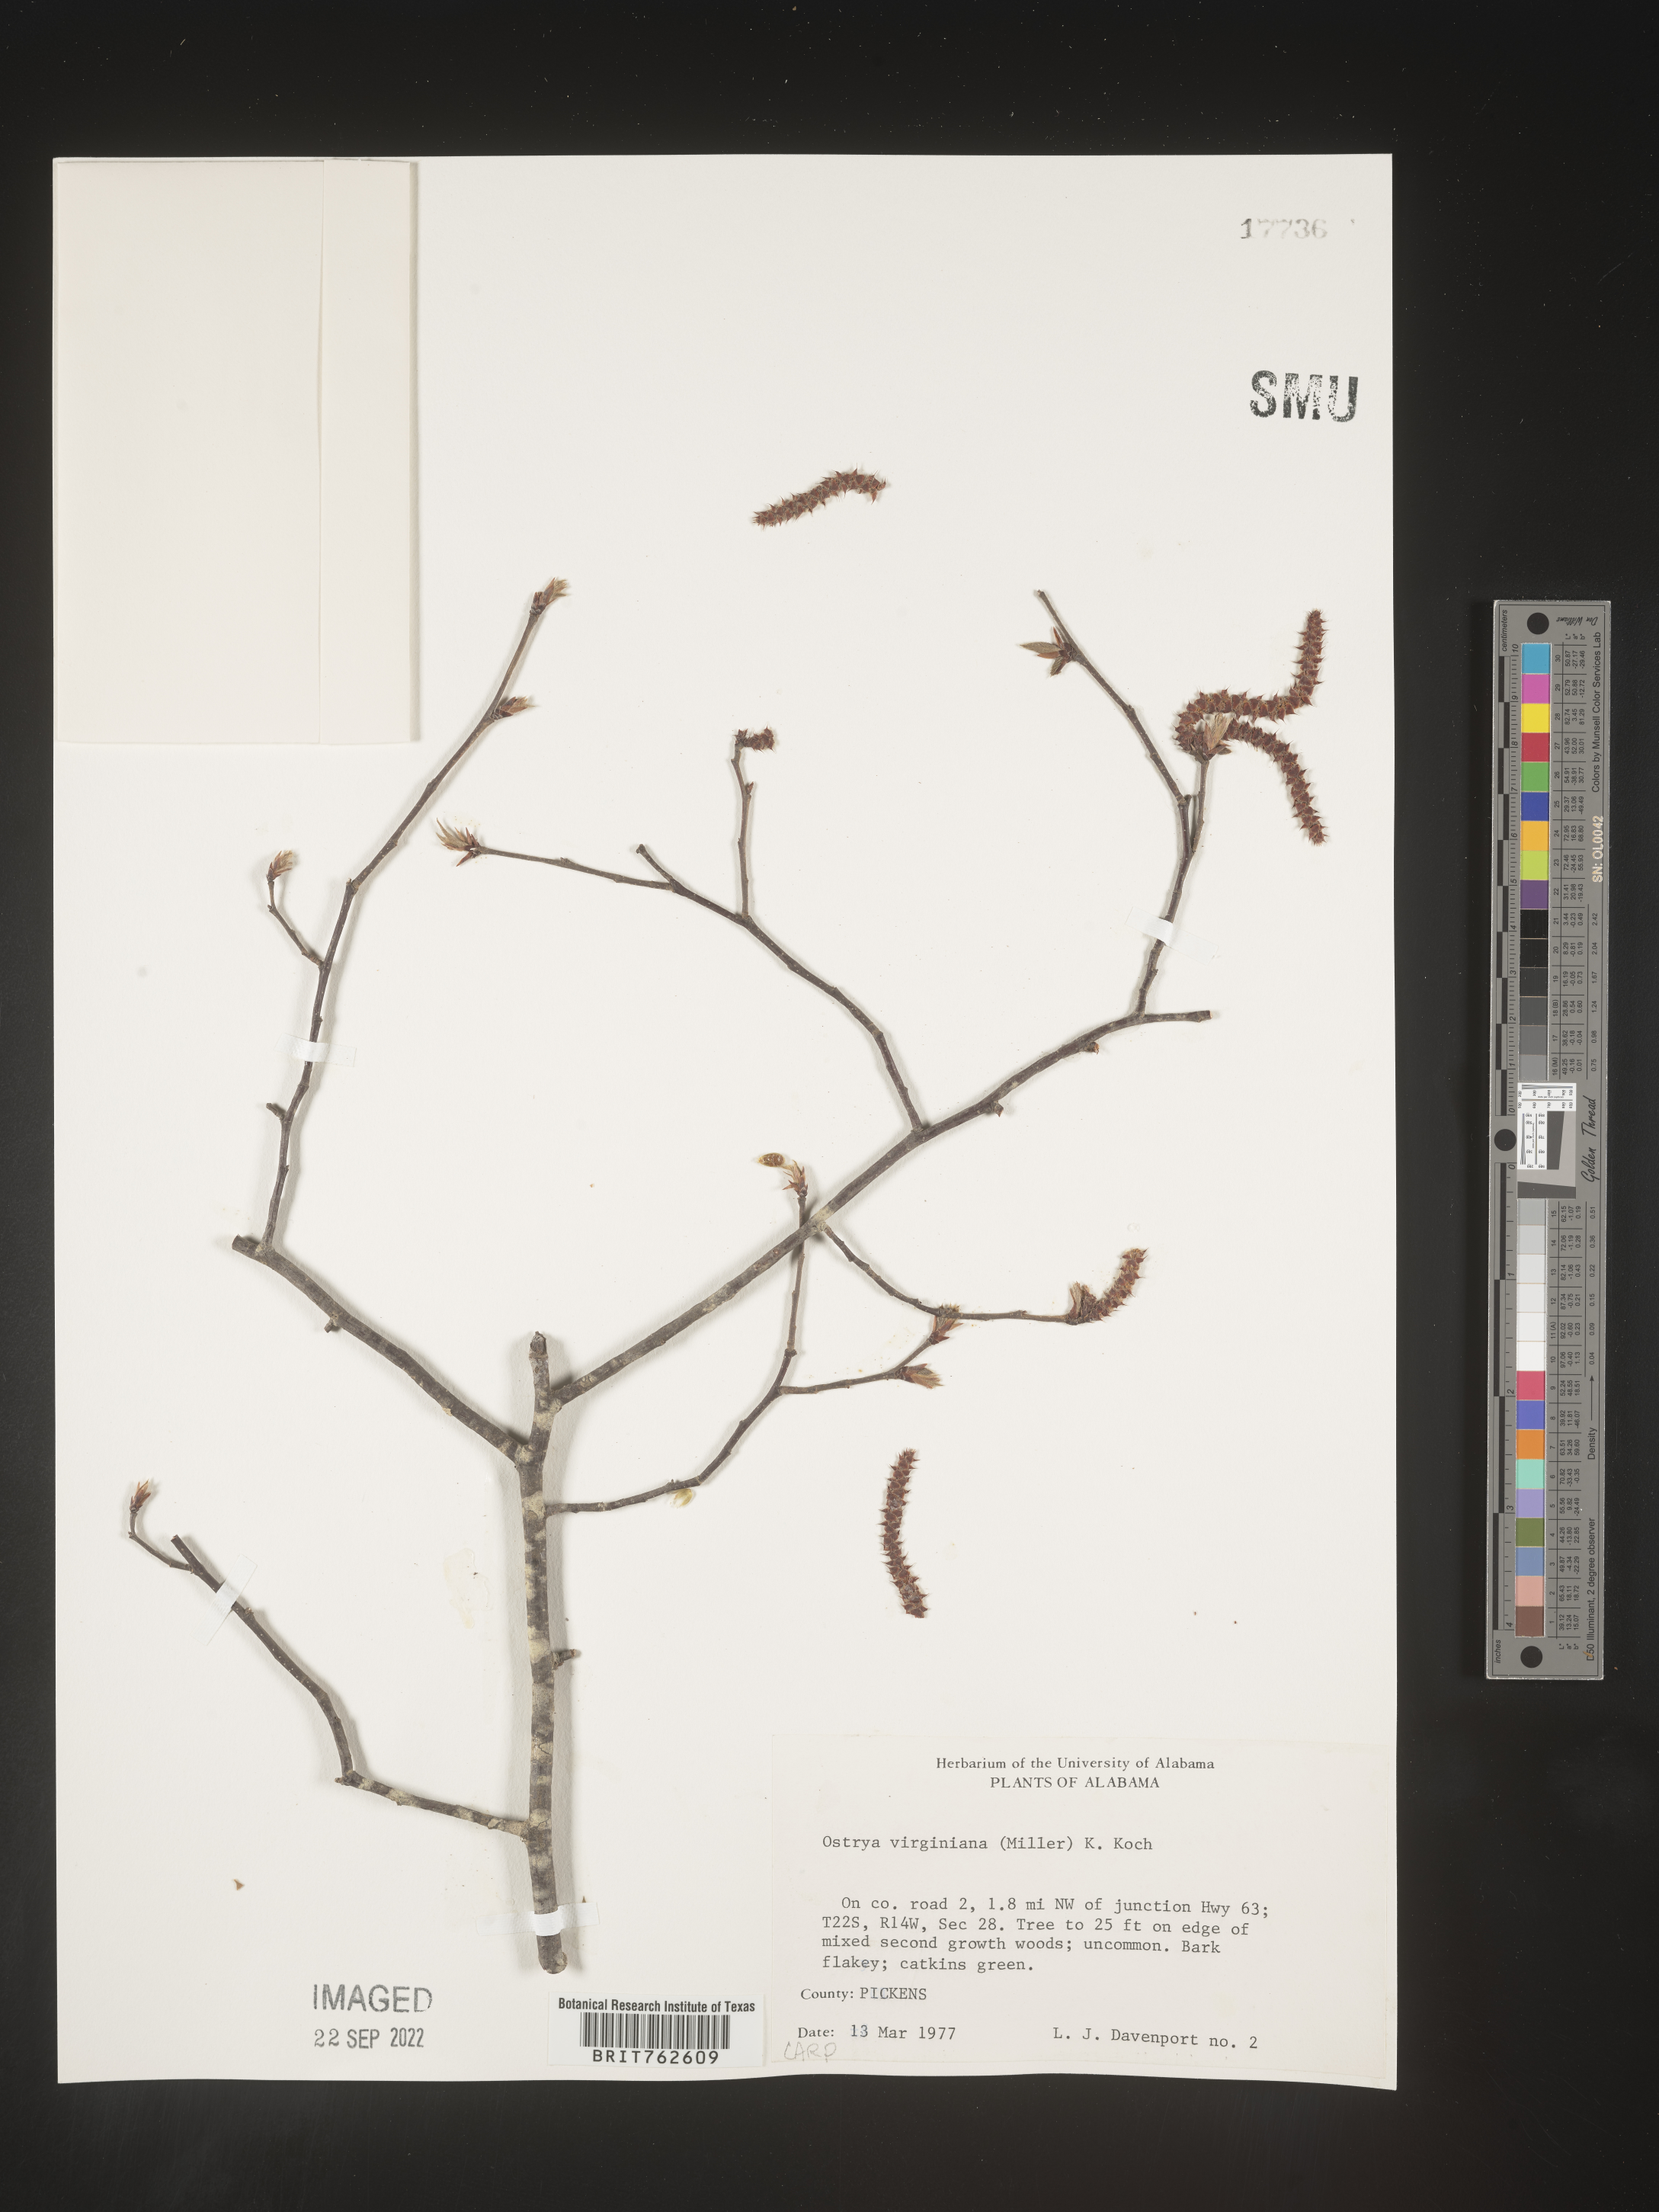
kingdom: Plantae
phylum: Tracheophyta
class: Magnoliopsida
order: Fagales
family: Betulaceae
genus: Ostrya
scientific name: Ostrya virginiana
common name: Ironwood
